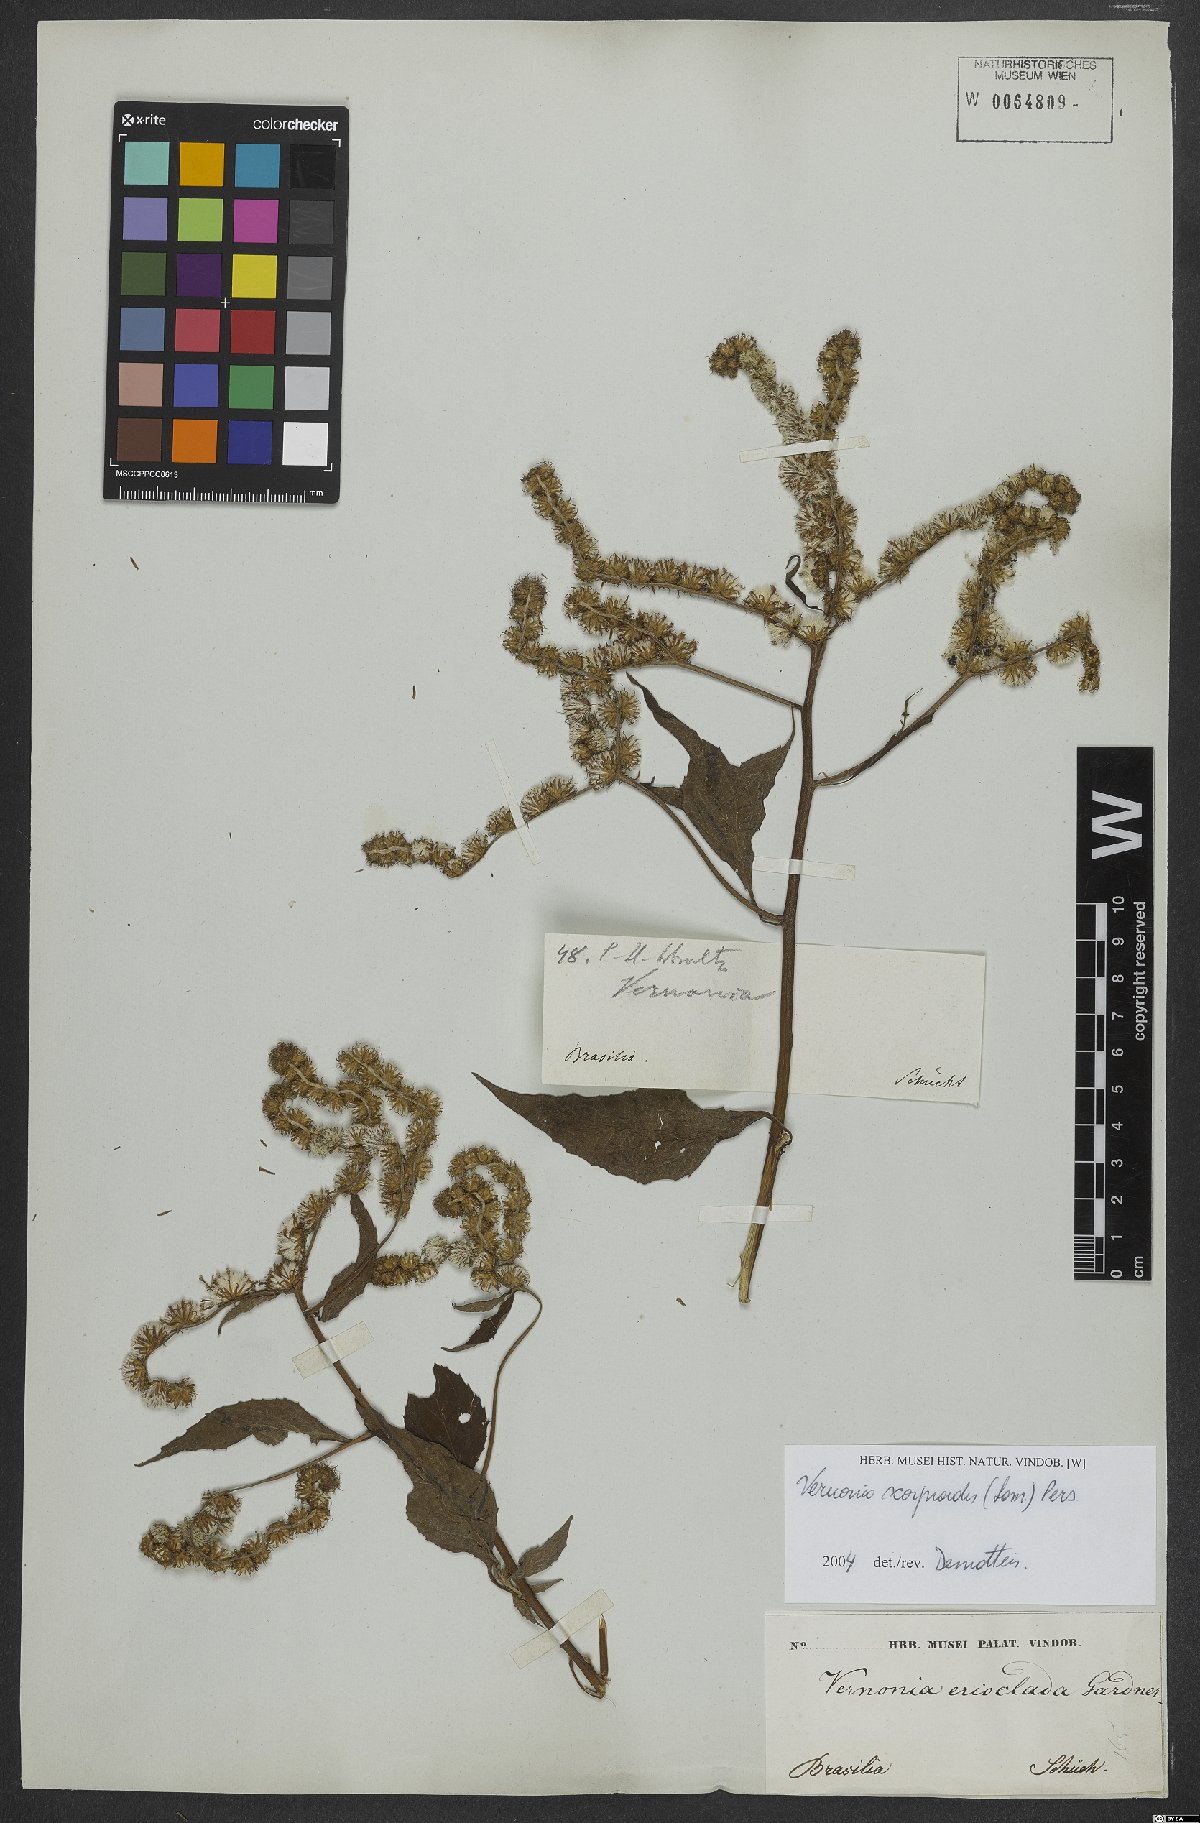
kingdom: Plantae
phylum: Tracheophyta
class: Magnoliopsida
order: Asterales
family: Asteraceae
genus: Cyrtocymura
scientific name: Cyrtocymura scorpioides
